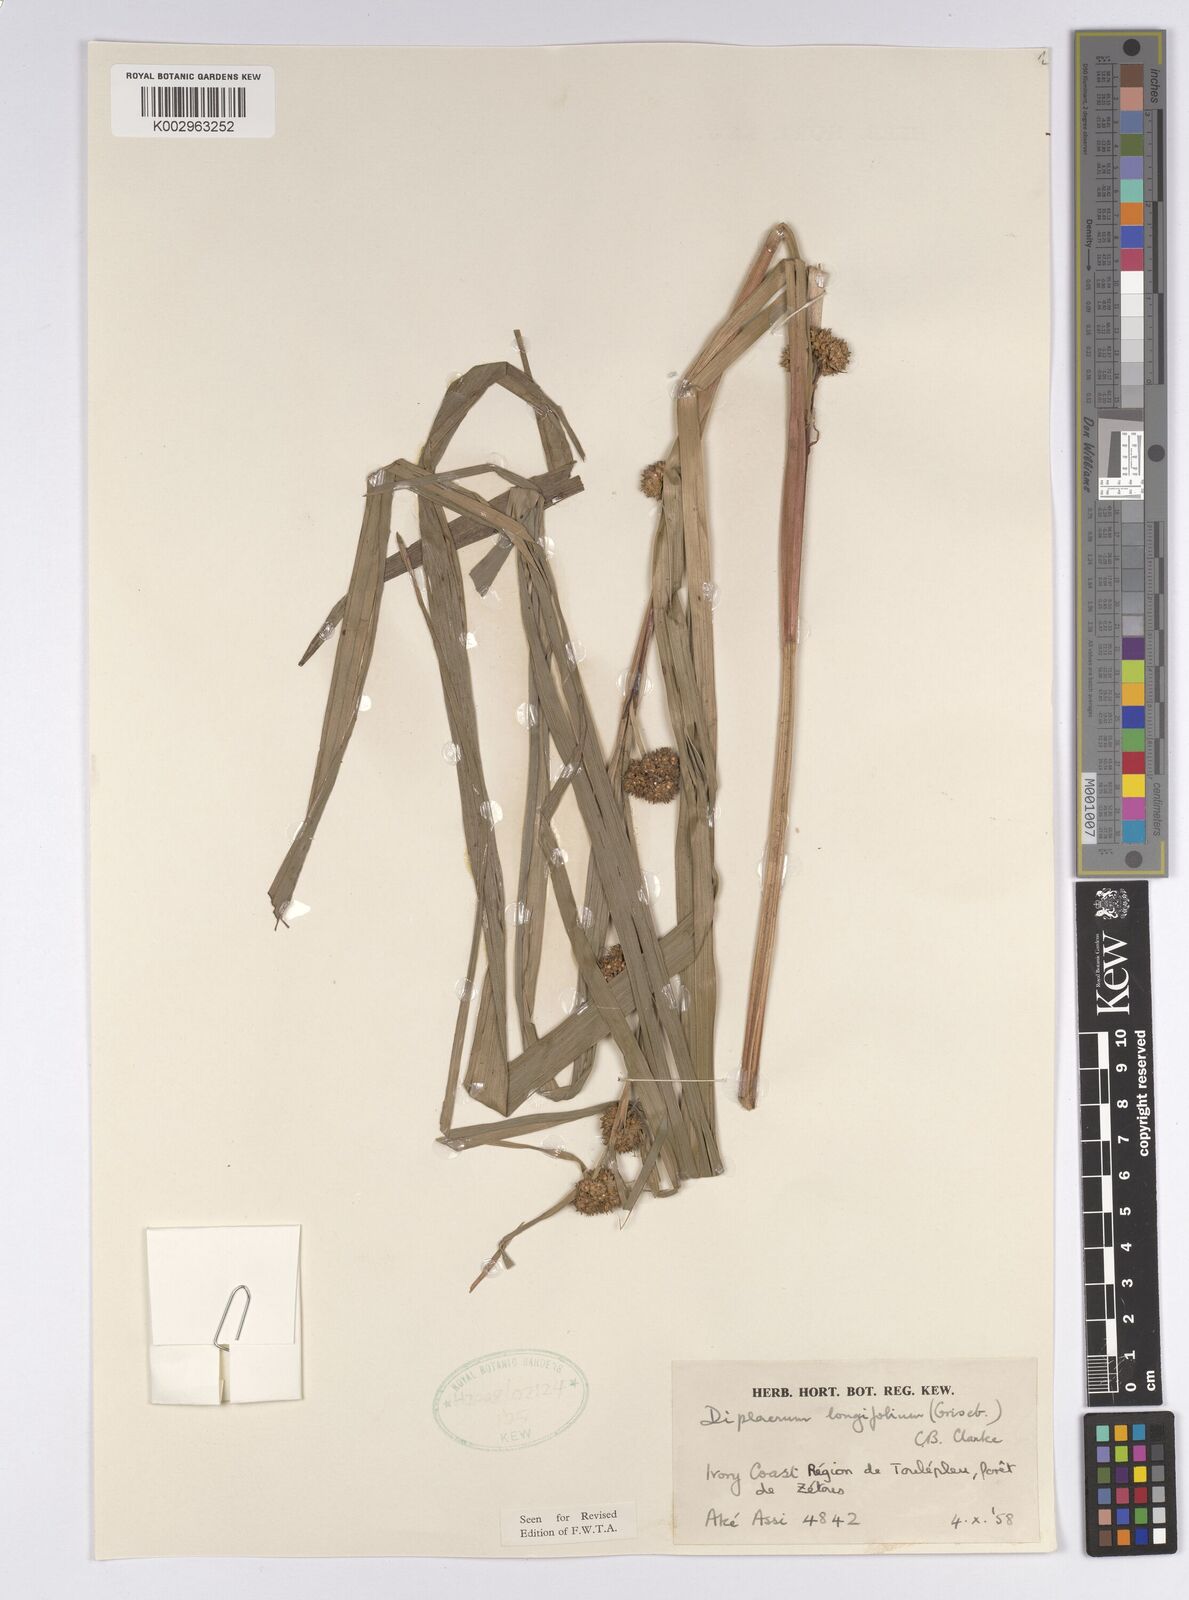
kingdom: Plantae
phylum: Tracheophyta
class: Liliopsida
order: Poales
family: Cyperaceae
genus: Diplacrum
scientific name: Diplacrum capitatum
